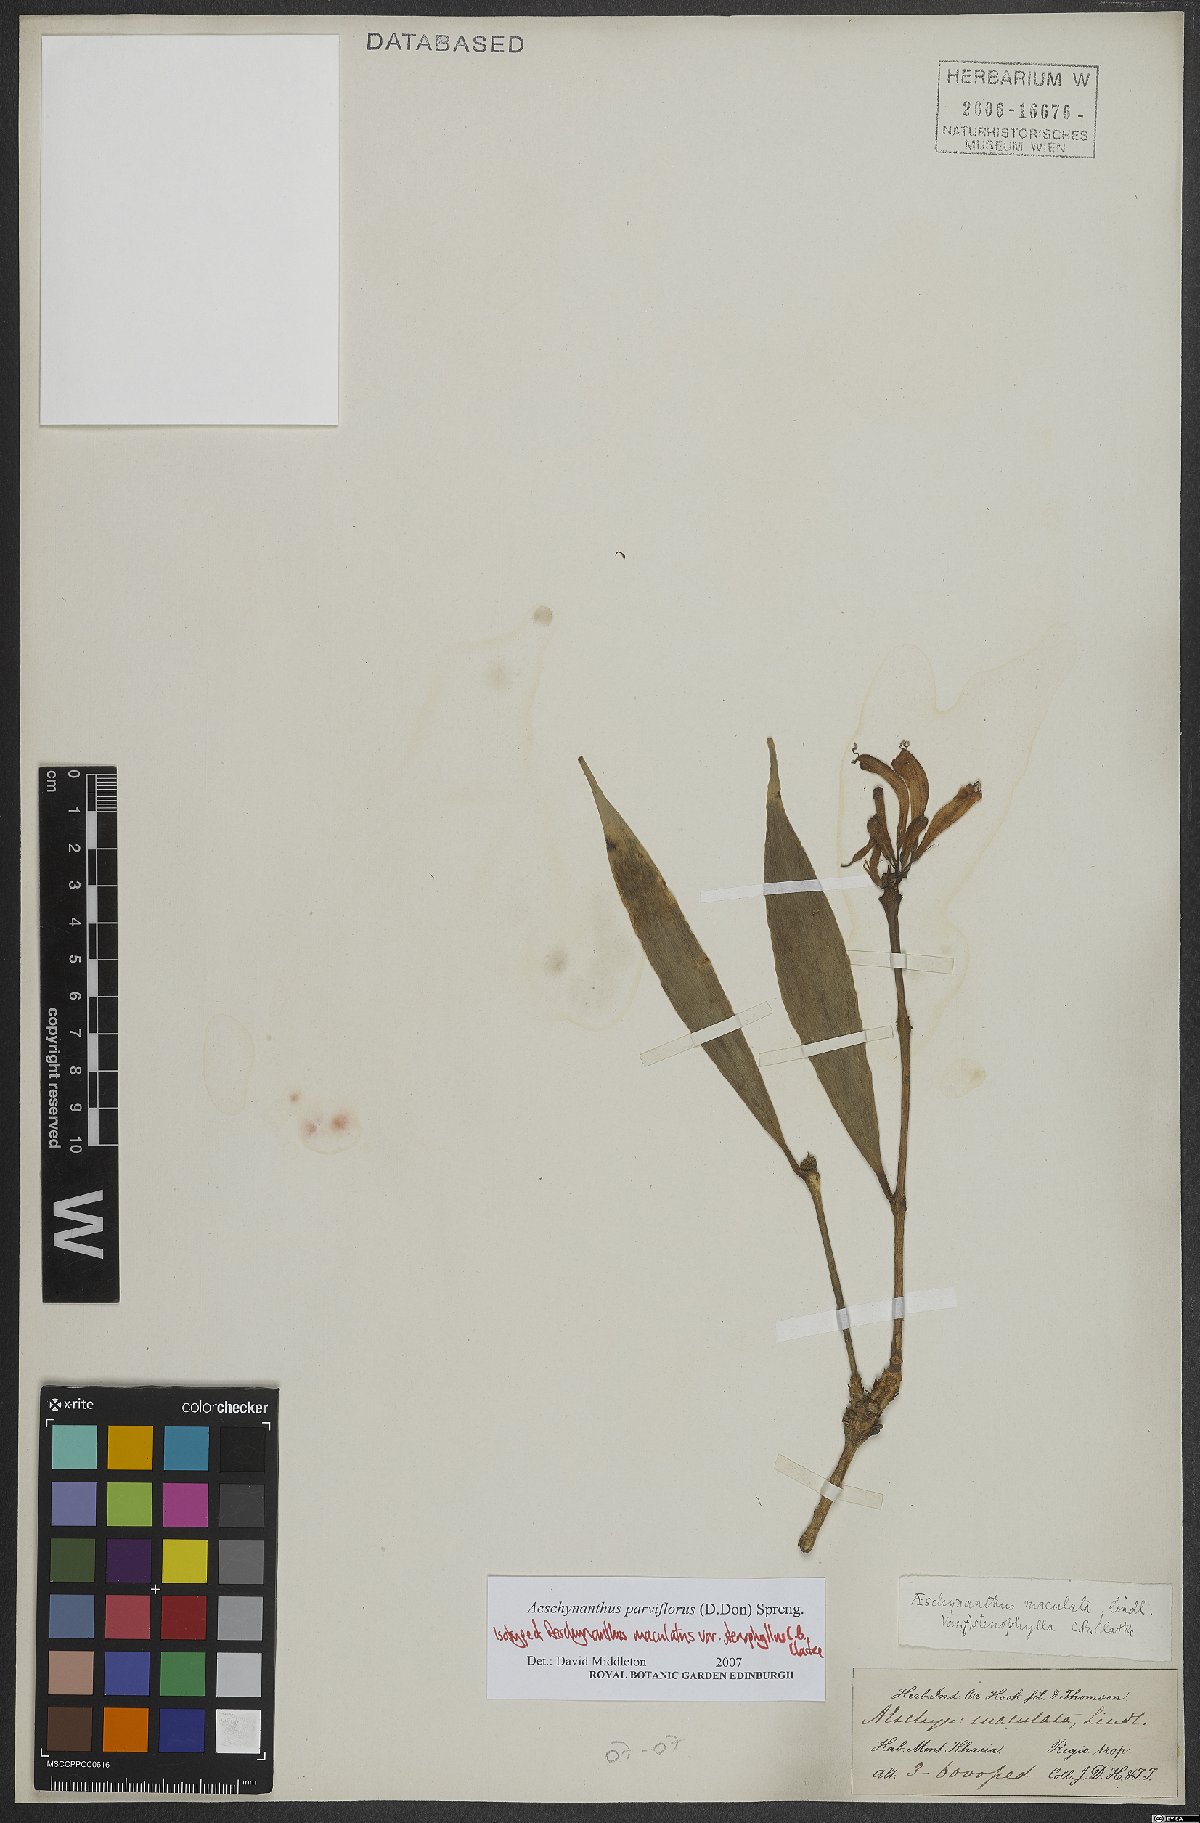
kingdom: Plantae
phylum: Tracheophyta
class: Magnoliopsida
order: Lamiales
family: Gesneriaceae
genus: Aeschynanthus
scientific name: Aeschynanthus parviflorus
